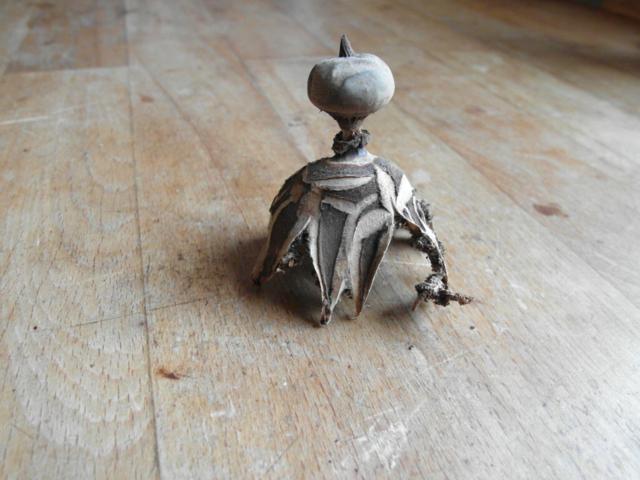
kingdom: Fungi
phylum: Basidiomycota
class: Agaricomycetes
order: Geastrales
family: Geastraceae
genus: Geastrum
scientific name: Geastrum pectinatum
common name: stilket stjernebold
